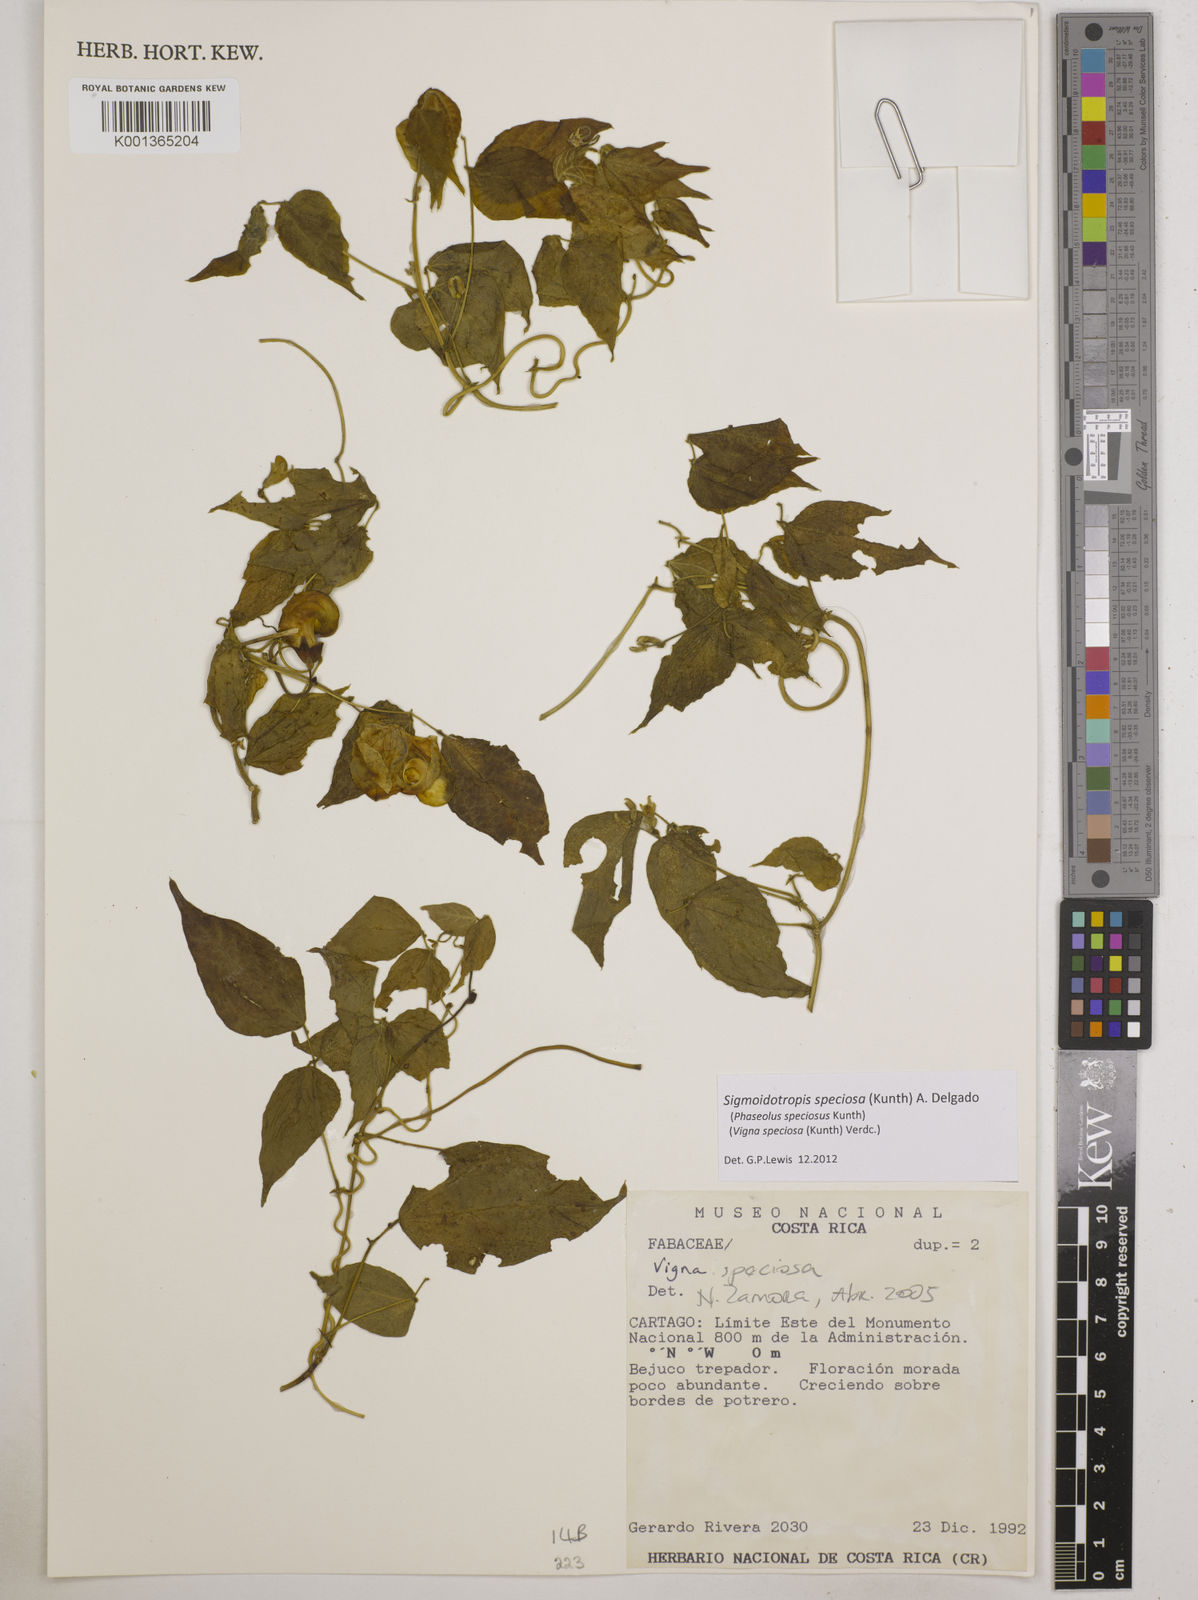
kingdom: Plantae
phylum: Tracheophyta
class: Magnoliopsida
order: Fabales
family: Fabaceae
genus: Sigmoidotropis
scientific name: Sigmoidotropis speciosa
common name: Snail flower
